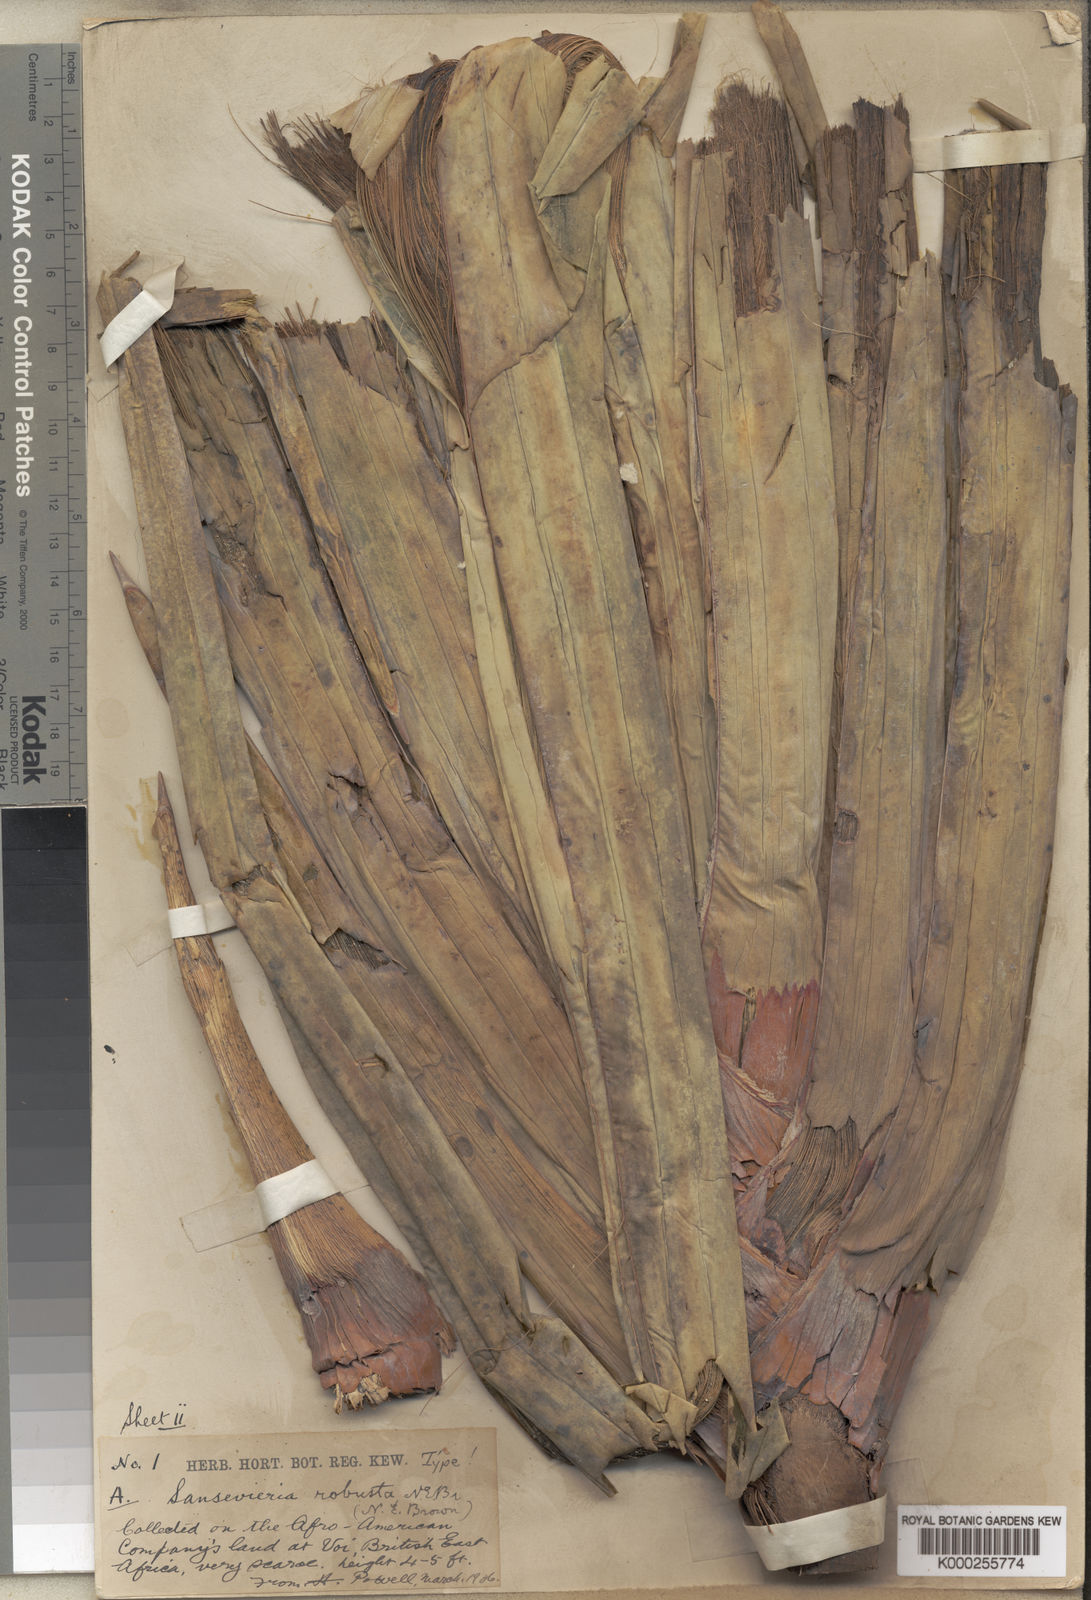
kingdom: Plantae
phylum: Tracheophyta
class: Liliopsida
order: Asparagales
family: Asparagaceae
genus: Dracaena
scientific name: Dracaena perrotii
